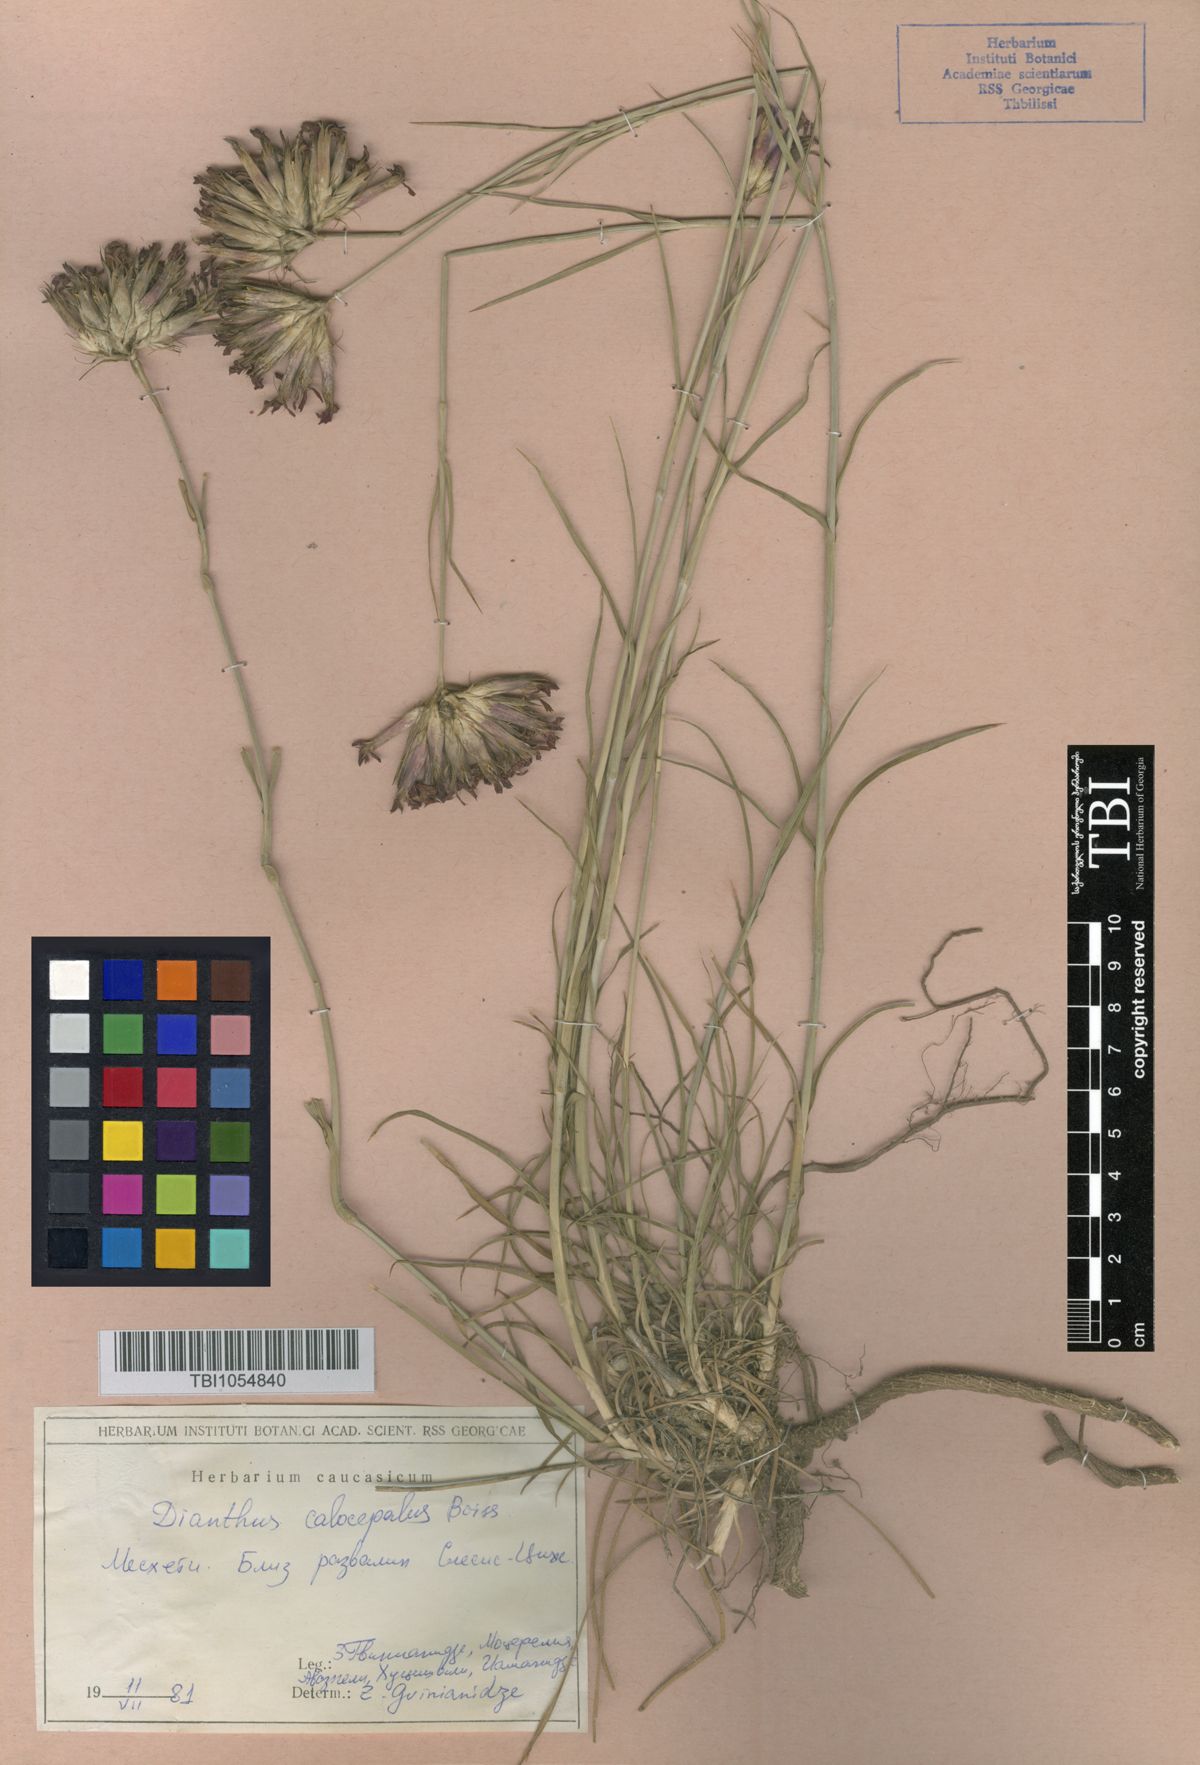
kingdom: Plantae
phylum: Tracheophyta
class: Magnoliopsida
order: Caryophyllales
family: Caryophyllaceae
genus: Dianthus
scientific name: Dianthus cruentus
